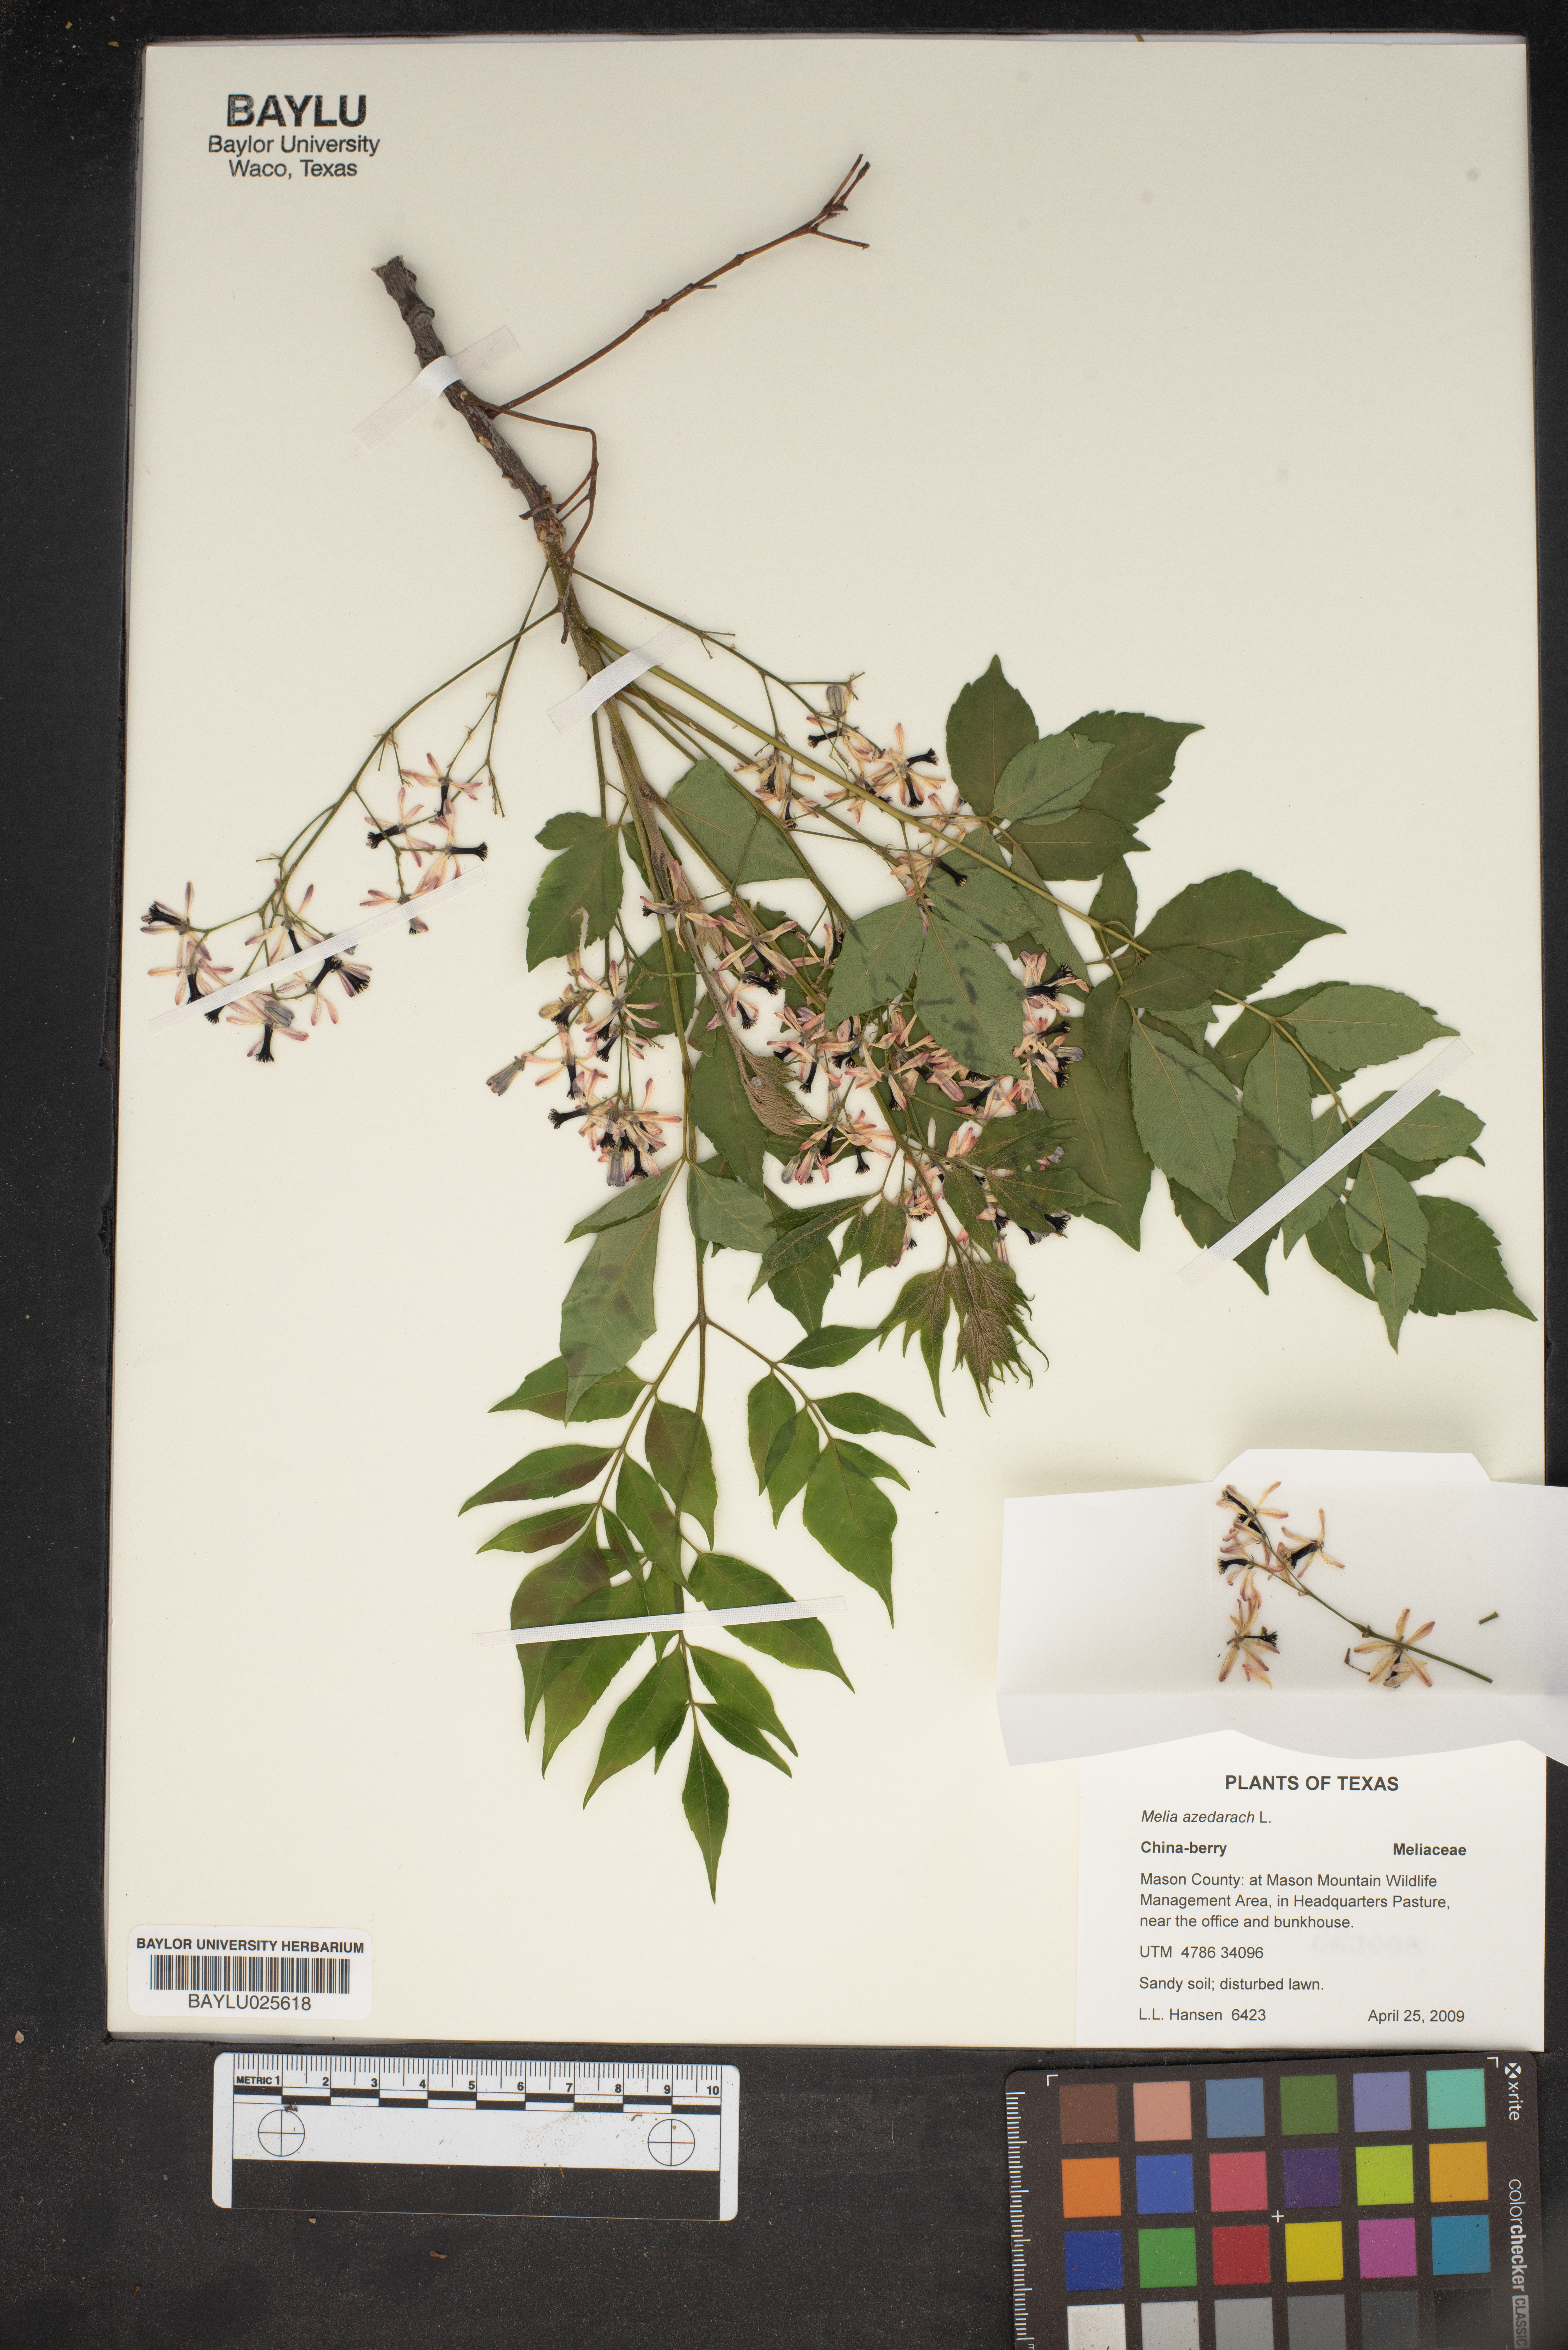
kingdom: Plantae
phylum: Tracheophyta
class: Magnoliopsida
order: Sapindales
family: Meliaceae
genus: Melia
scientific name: Melia azedarach
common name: Chinaberrytree
